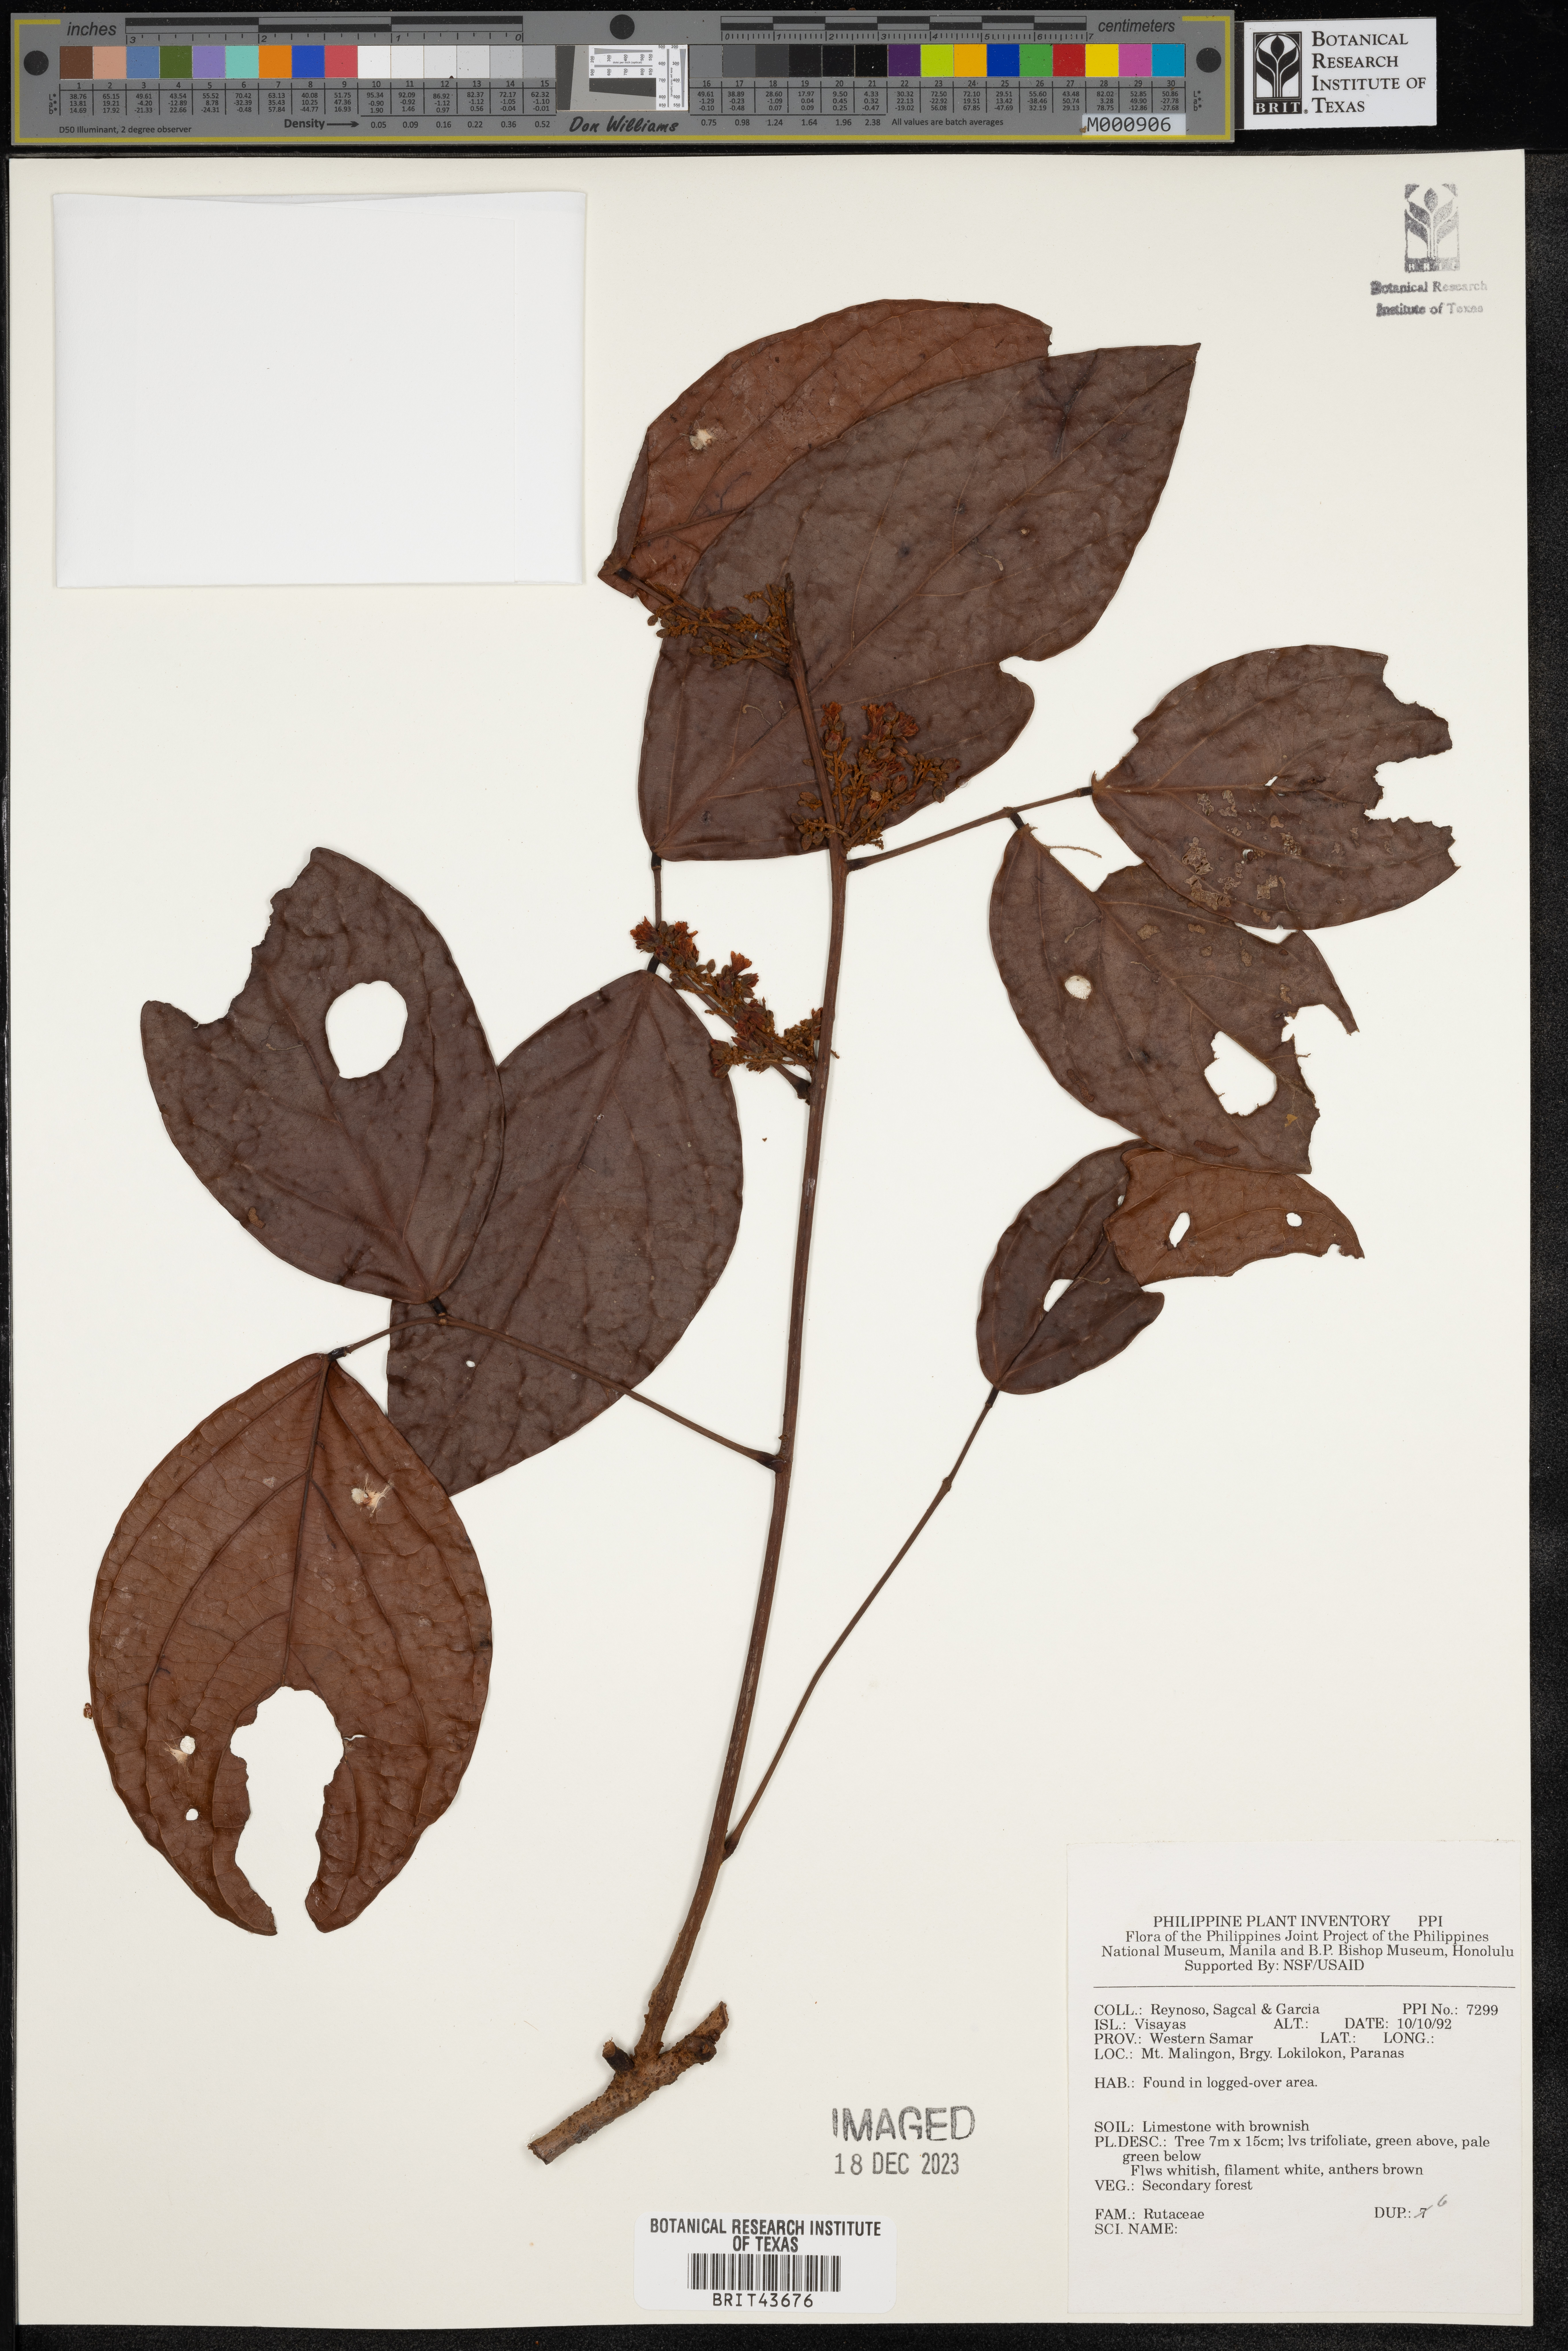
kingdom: Plantae
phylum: Tracheophyta
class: Magnoliopsida
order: Sapindales
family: Rutaceae
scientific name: Rutaceae
